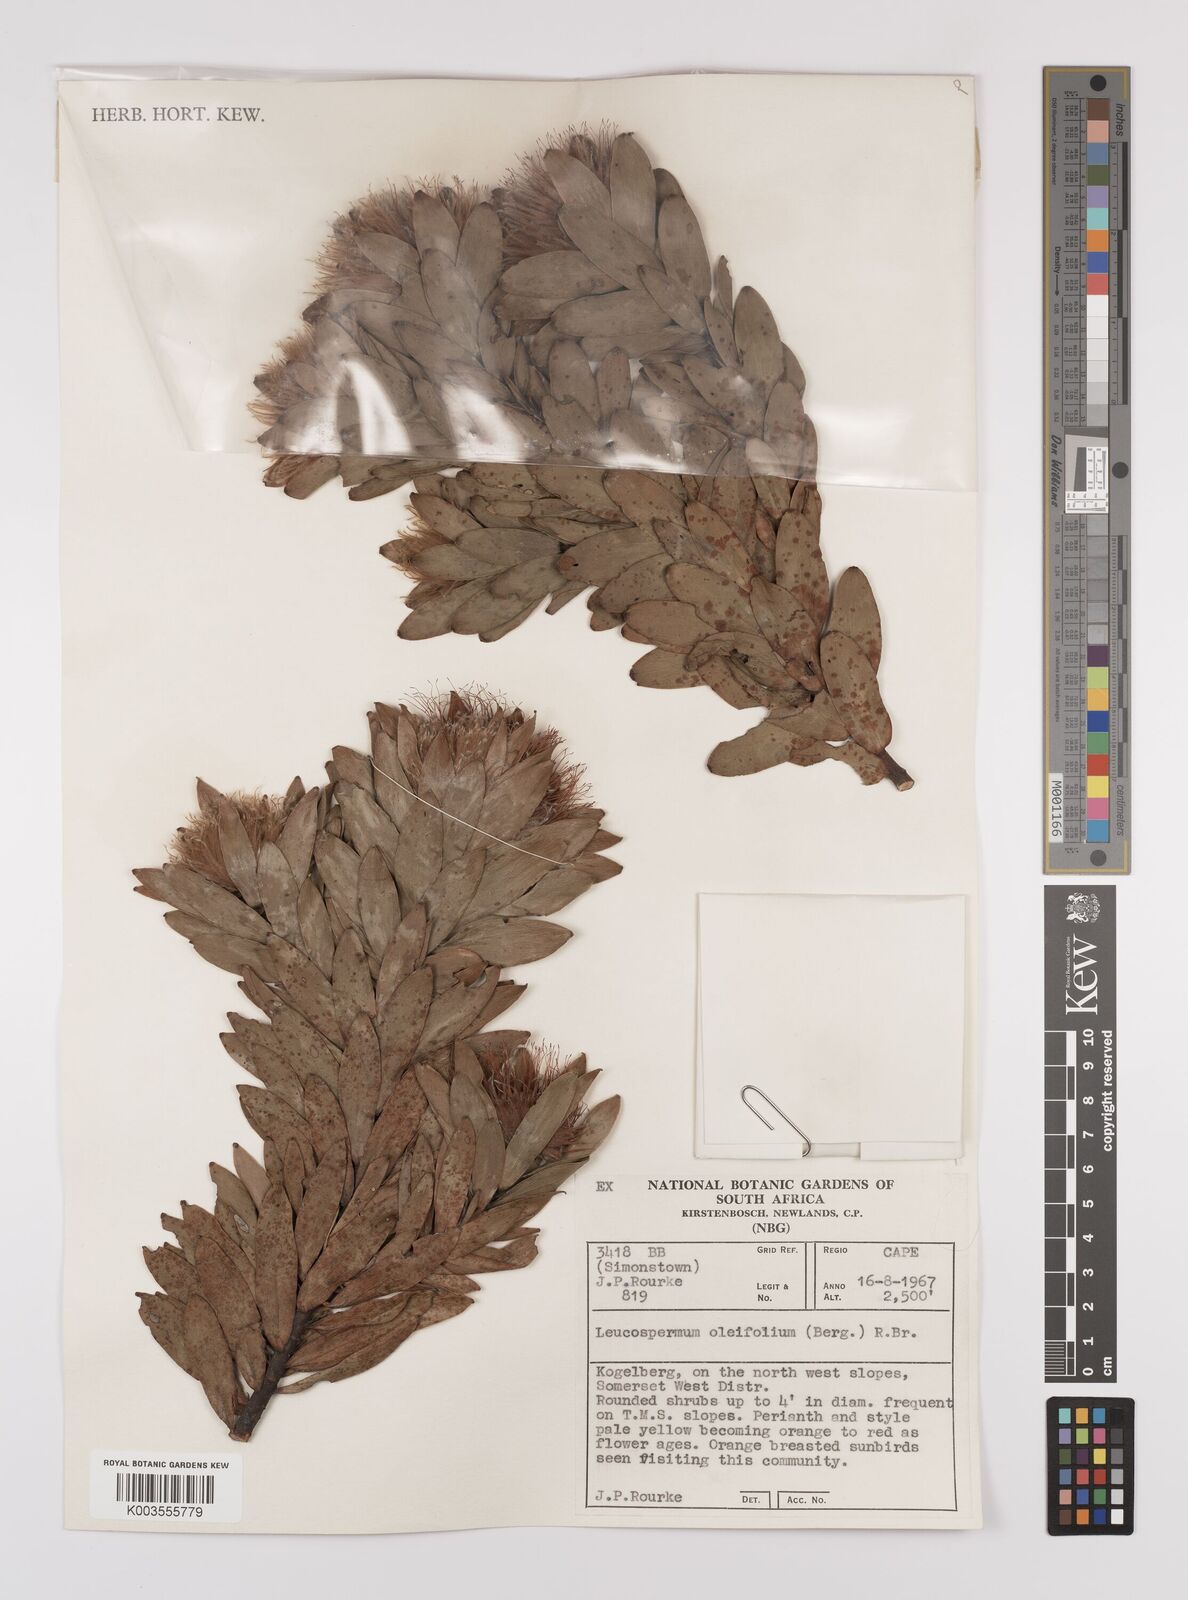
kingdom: Plantae
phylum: Tracheophyta
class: Magnoliopsida
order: Proteales
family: Proteaceae
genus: Leucospermum
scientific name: Leucospermum oleifolium
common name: Matches
